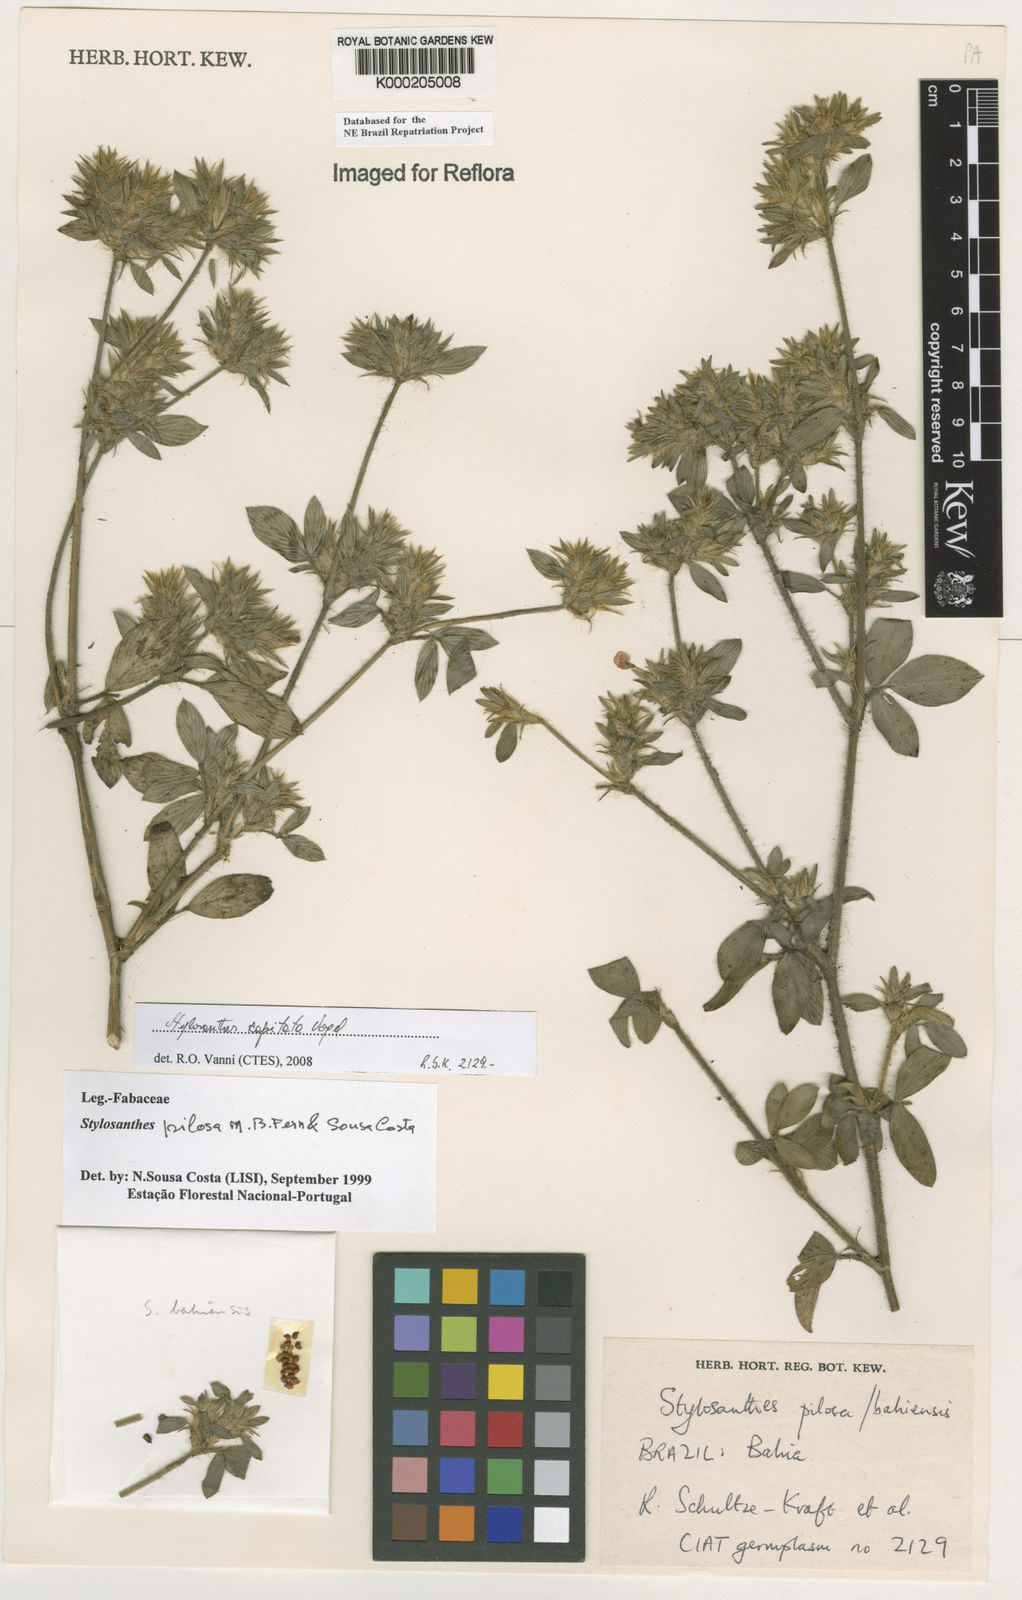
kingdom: Plantae
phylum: Tracheophyta
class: Magnoliopsida
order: Fabales
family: Fabaceae
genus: Stylosanthes
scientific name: Stylosanthes viscosa
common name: Viscid pencil-flower
